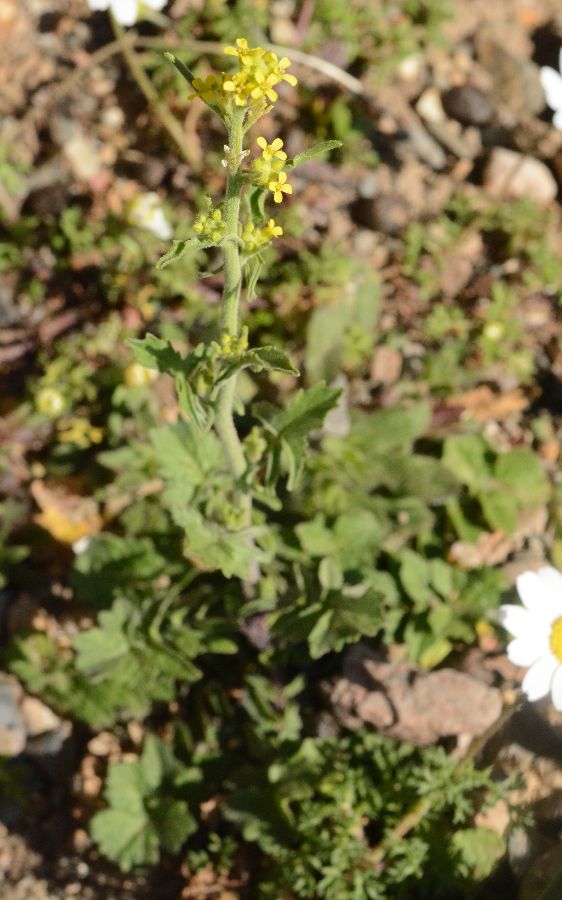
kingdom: Plantae
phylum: Tracheophyta
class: Magnoliopsida
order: Brassicales
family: Brassicaceae
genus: Sisymbrium
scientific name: Sisymbrium officinale
